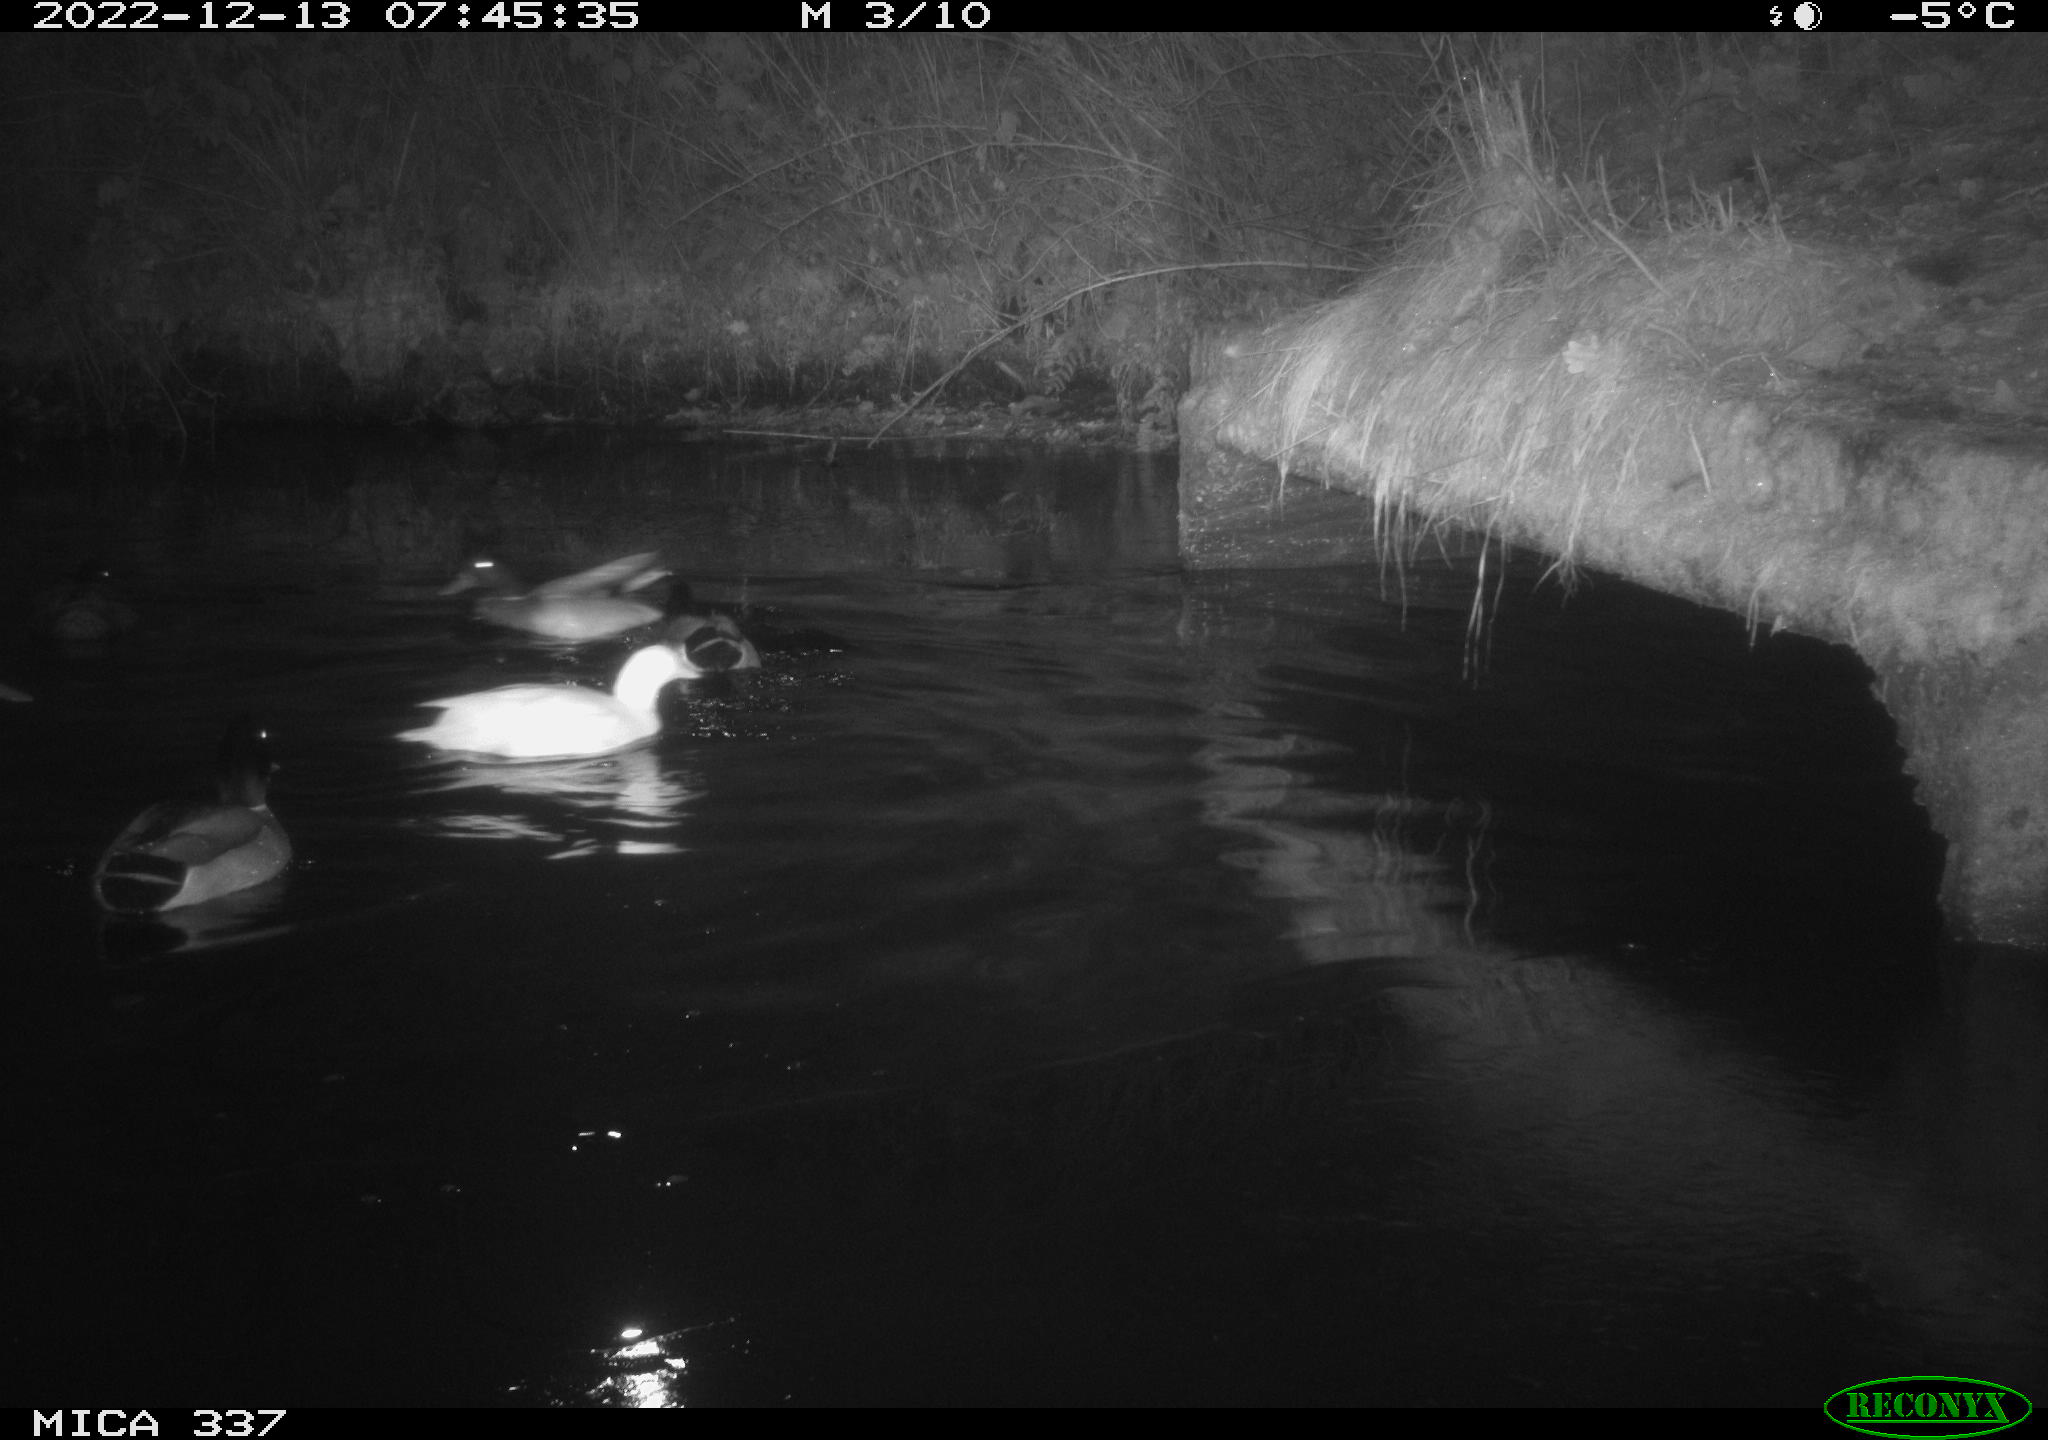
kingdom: Animalia
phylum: Chordata
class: Aves
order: Anseriformes
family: Anatidae
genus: Anas
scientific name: Anas
